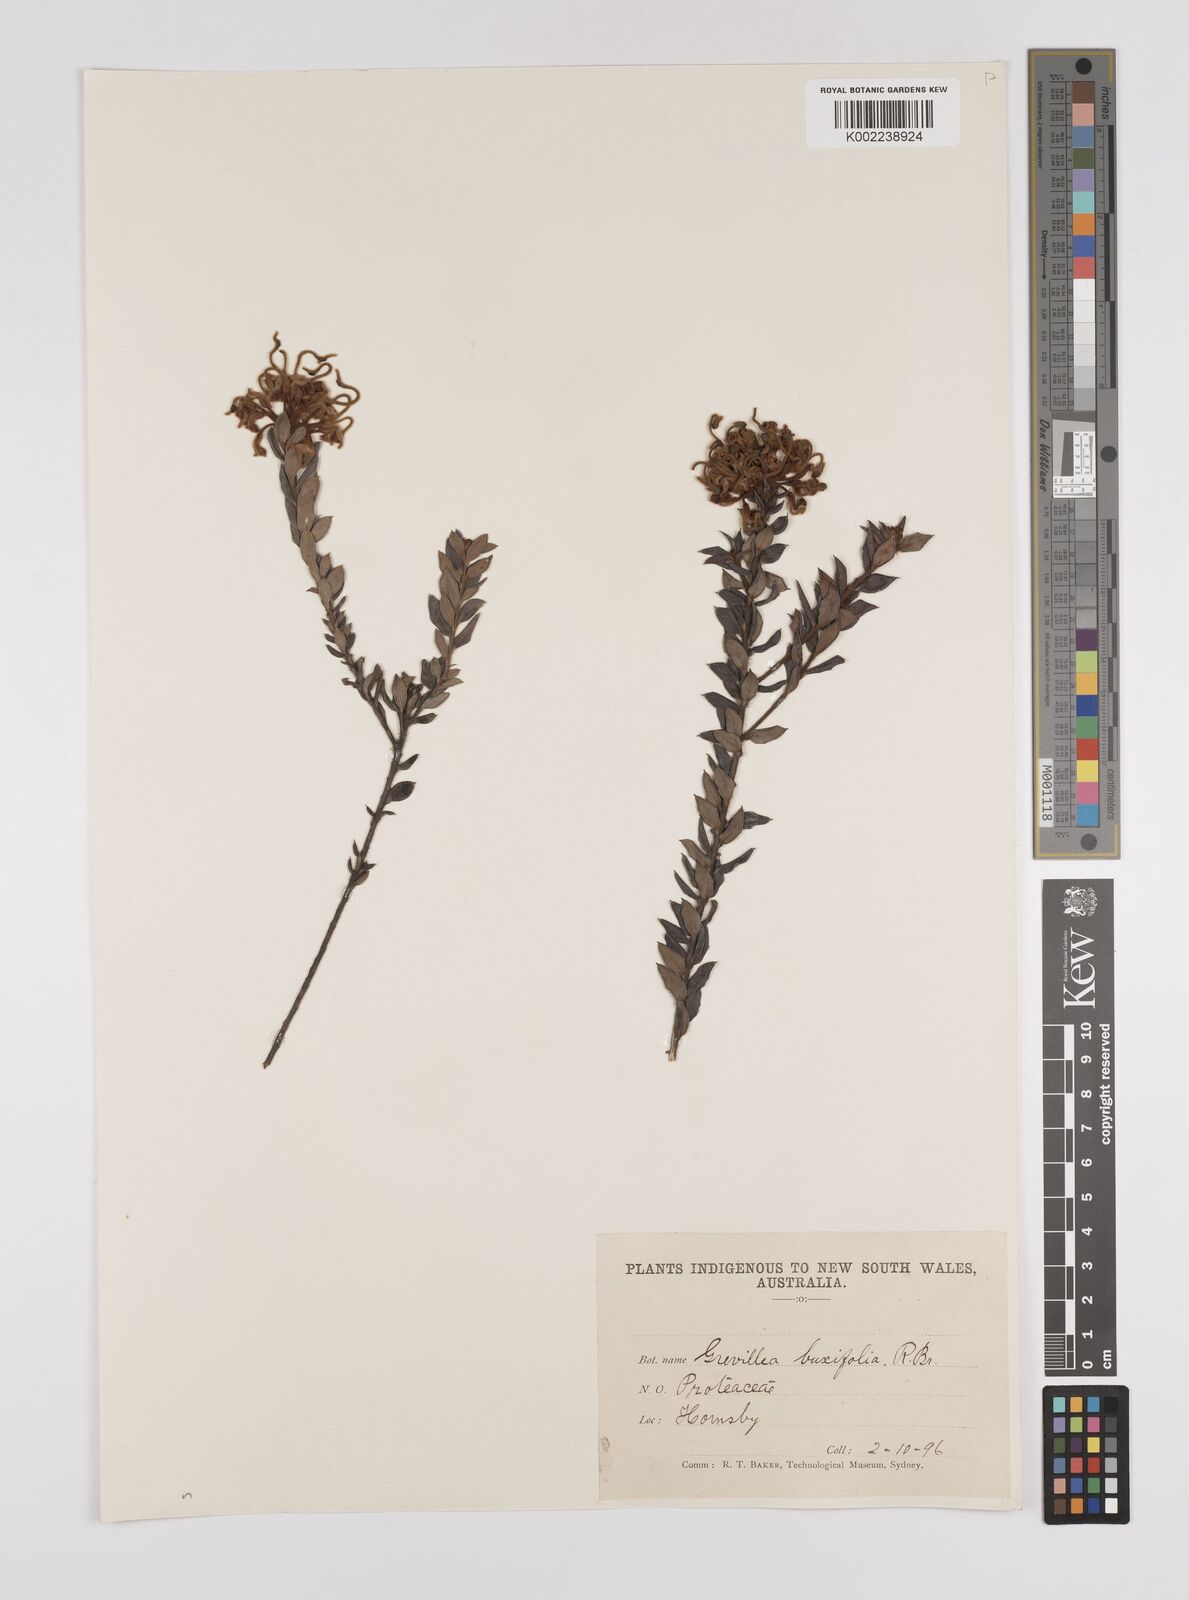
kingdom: Plantae
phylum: Tracheophyta
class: Magnoliopsida
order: Proteales
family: Proteaceae
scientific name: Proteaceae
